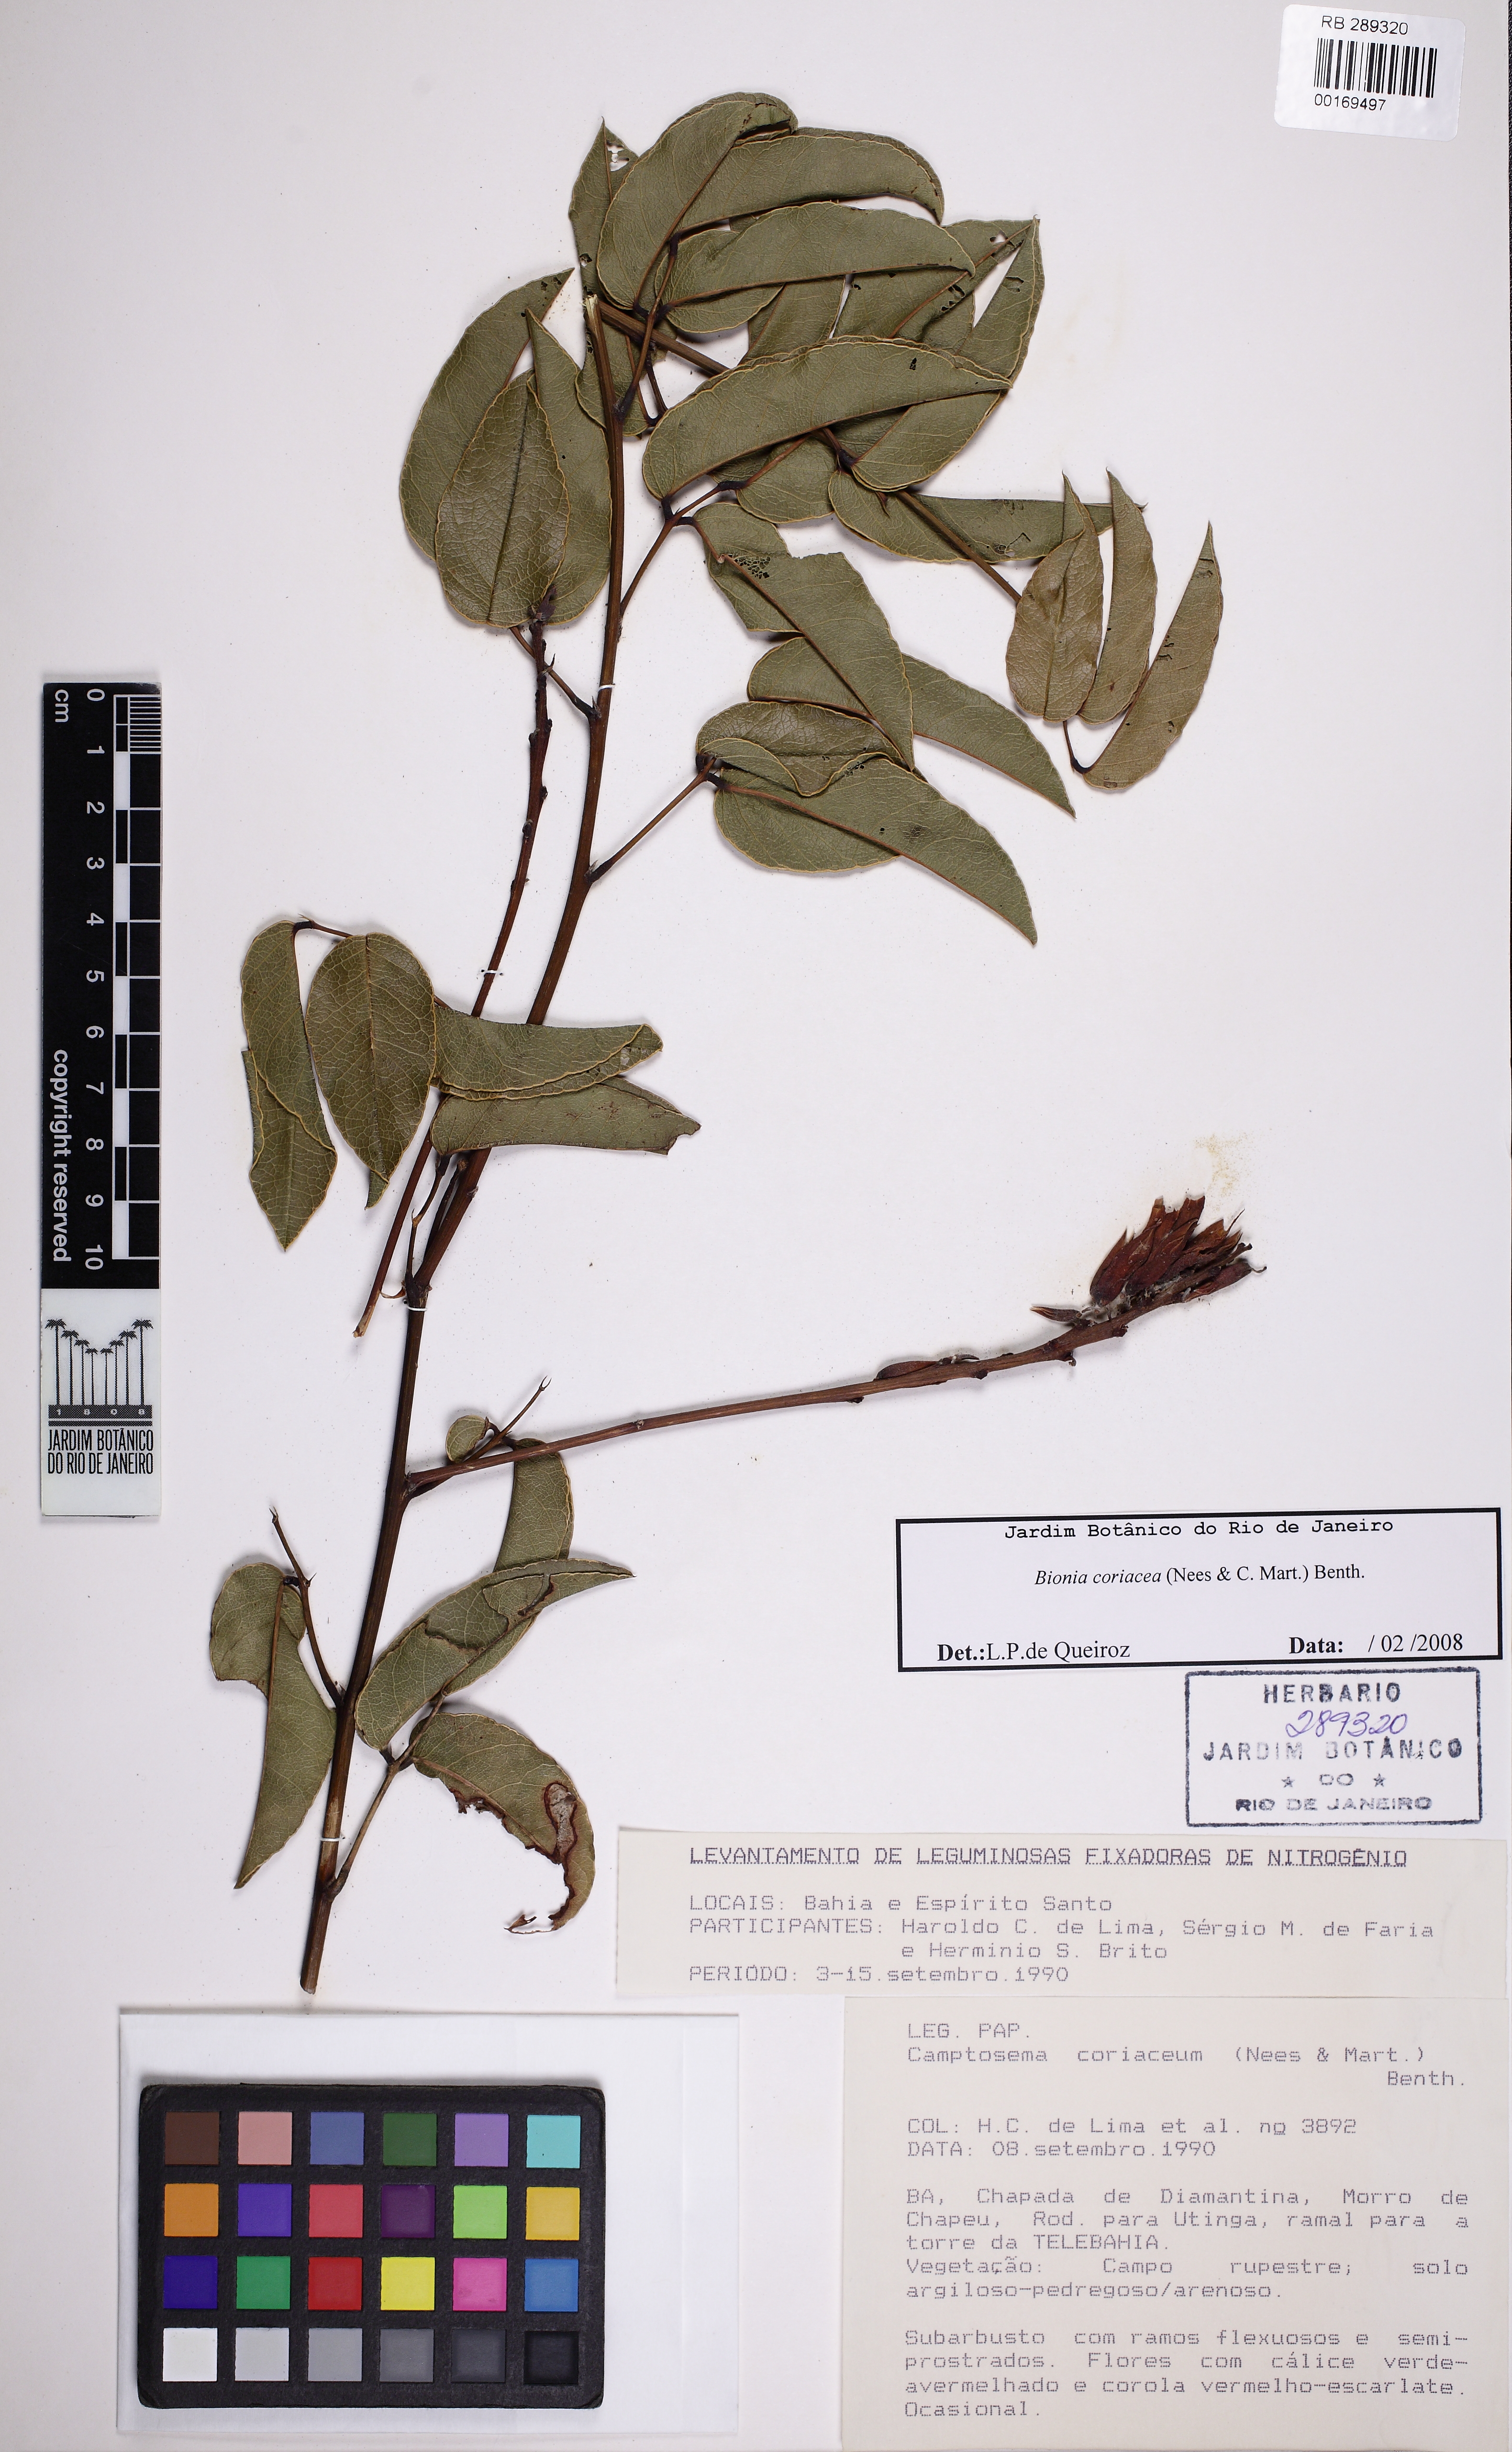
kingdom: Plantae
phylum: Tracheophyta
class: Magnoliopsida
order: Fabales
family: Fabaceae
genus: Camptosema
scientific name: Camptosema coriaceum
